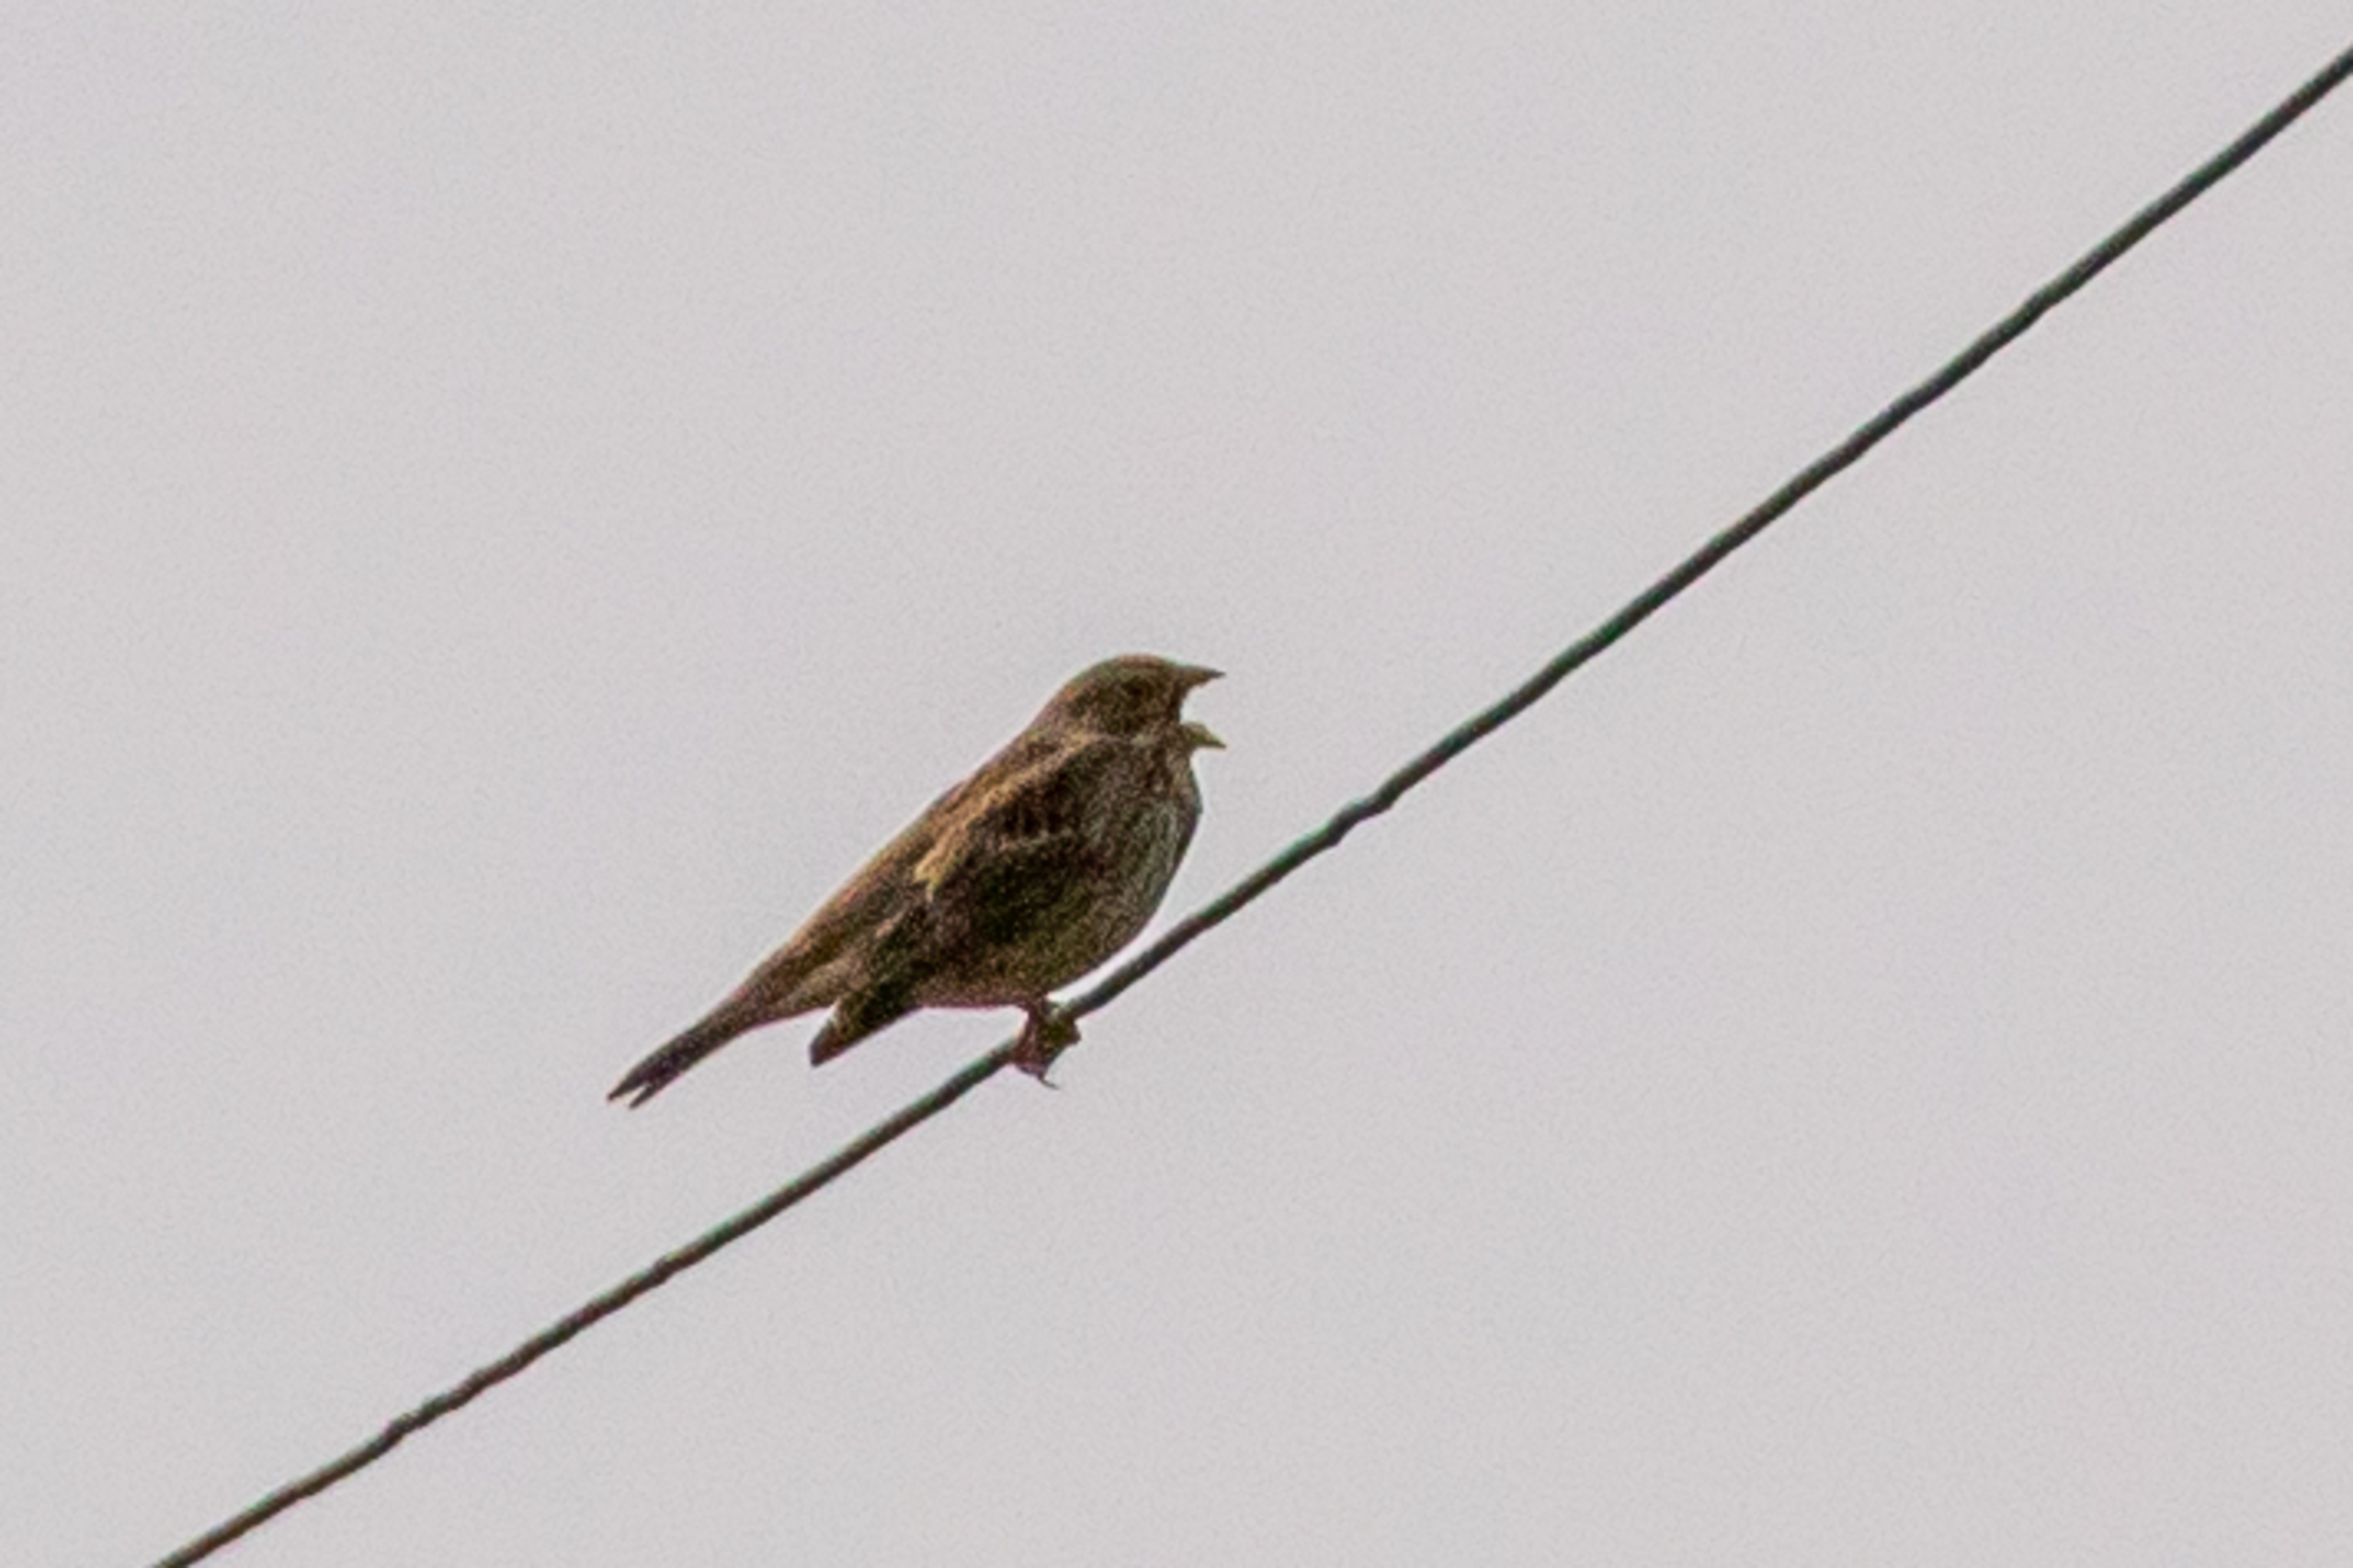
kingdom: Animalia
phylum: Chordata
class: Aves
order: Passeriformes
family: Emberizidae
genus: Emberiza
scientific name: Emberiza calandra
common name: Bomlærke
